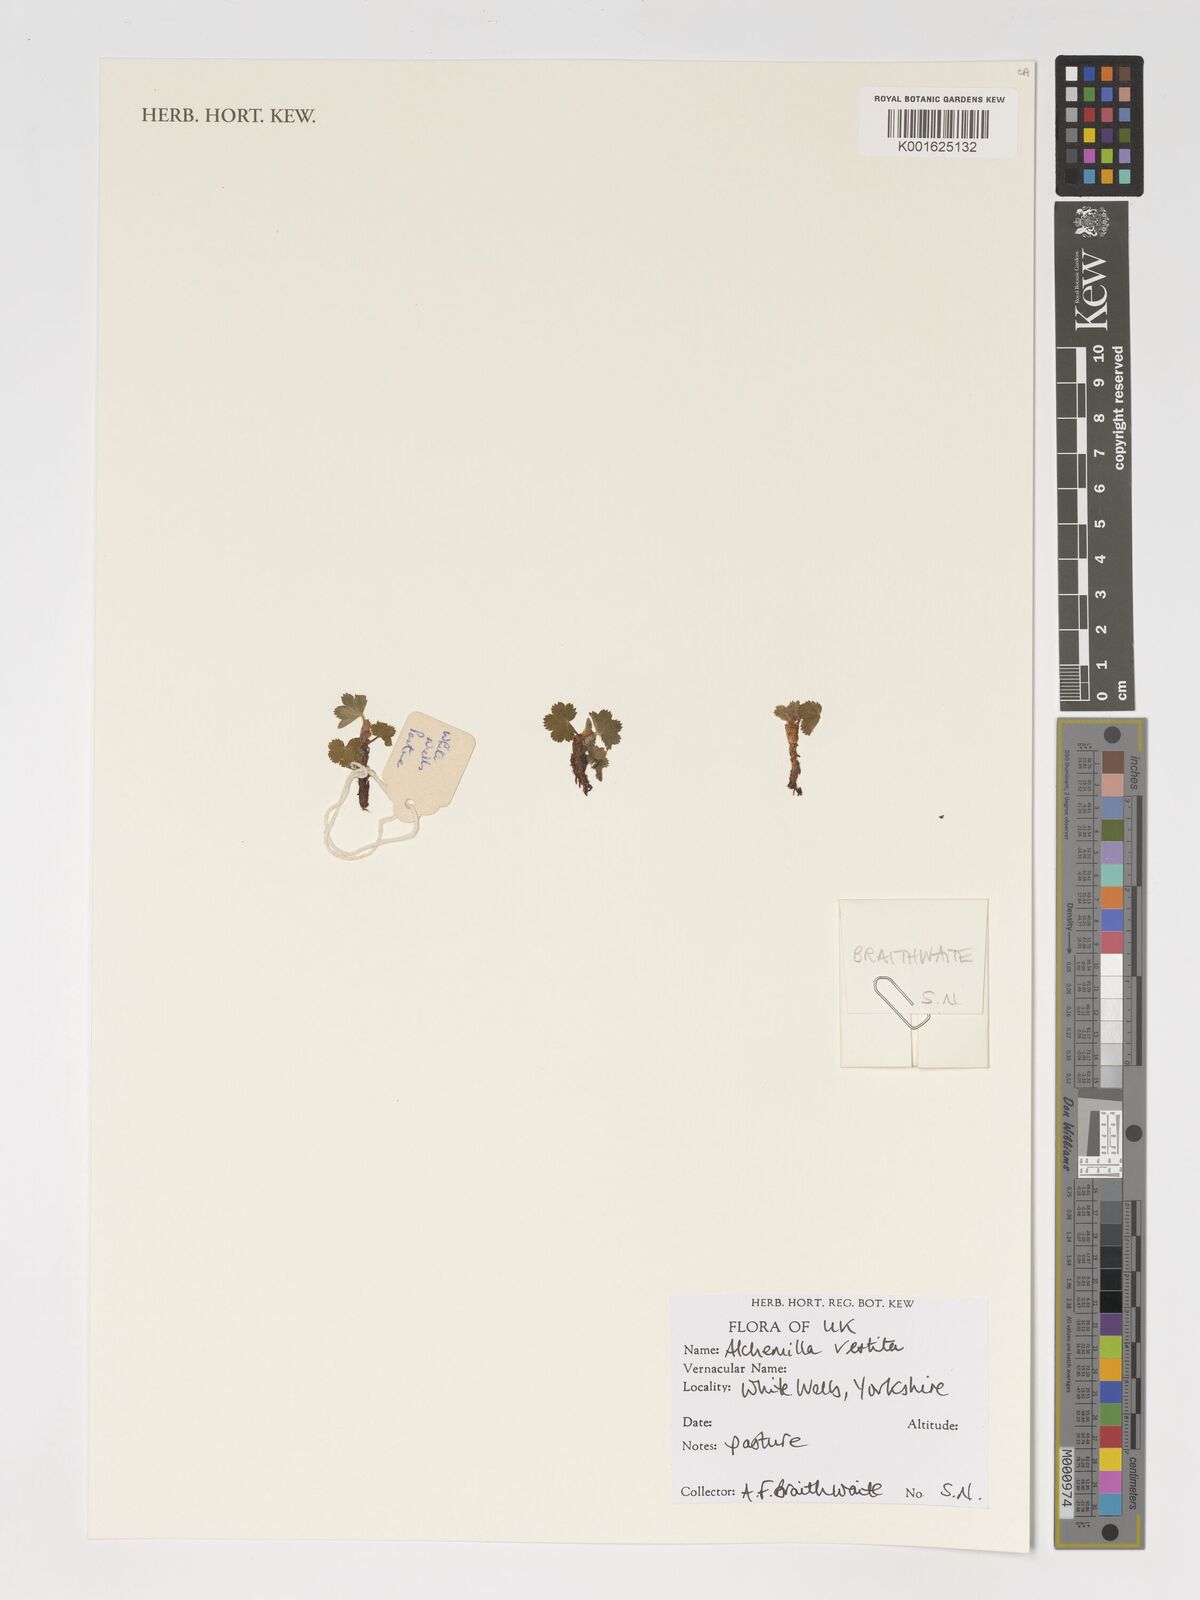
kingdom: Plantae
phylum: Tracheophyta
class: Magnoliopsida
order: Rosales
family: Rosaceae
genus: Alchemilla
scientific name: Alchemilla filicaulis
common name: Hairy lady's-mantle
